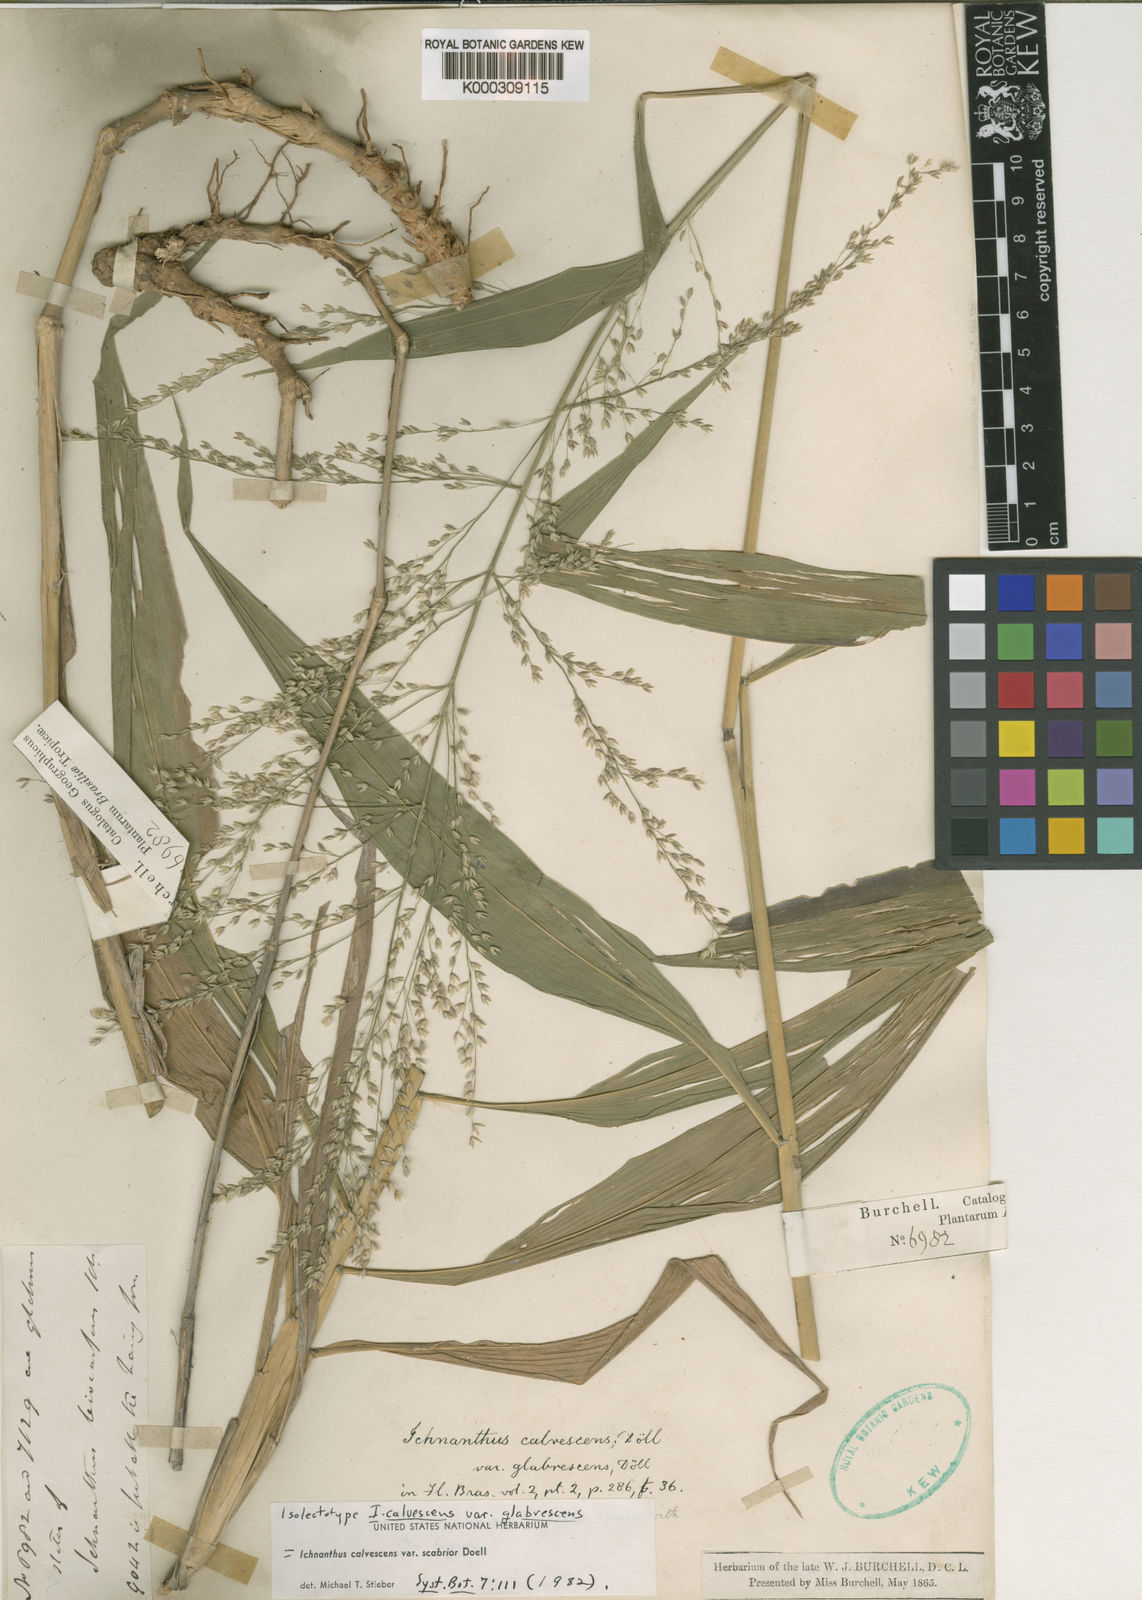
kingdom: Plantae
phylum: Tracheophyta
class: Liliopsida
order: Poales
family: Poaceae
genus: Ichnanthus
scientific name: Ichnanthus
